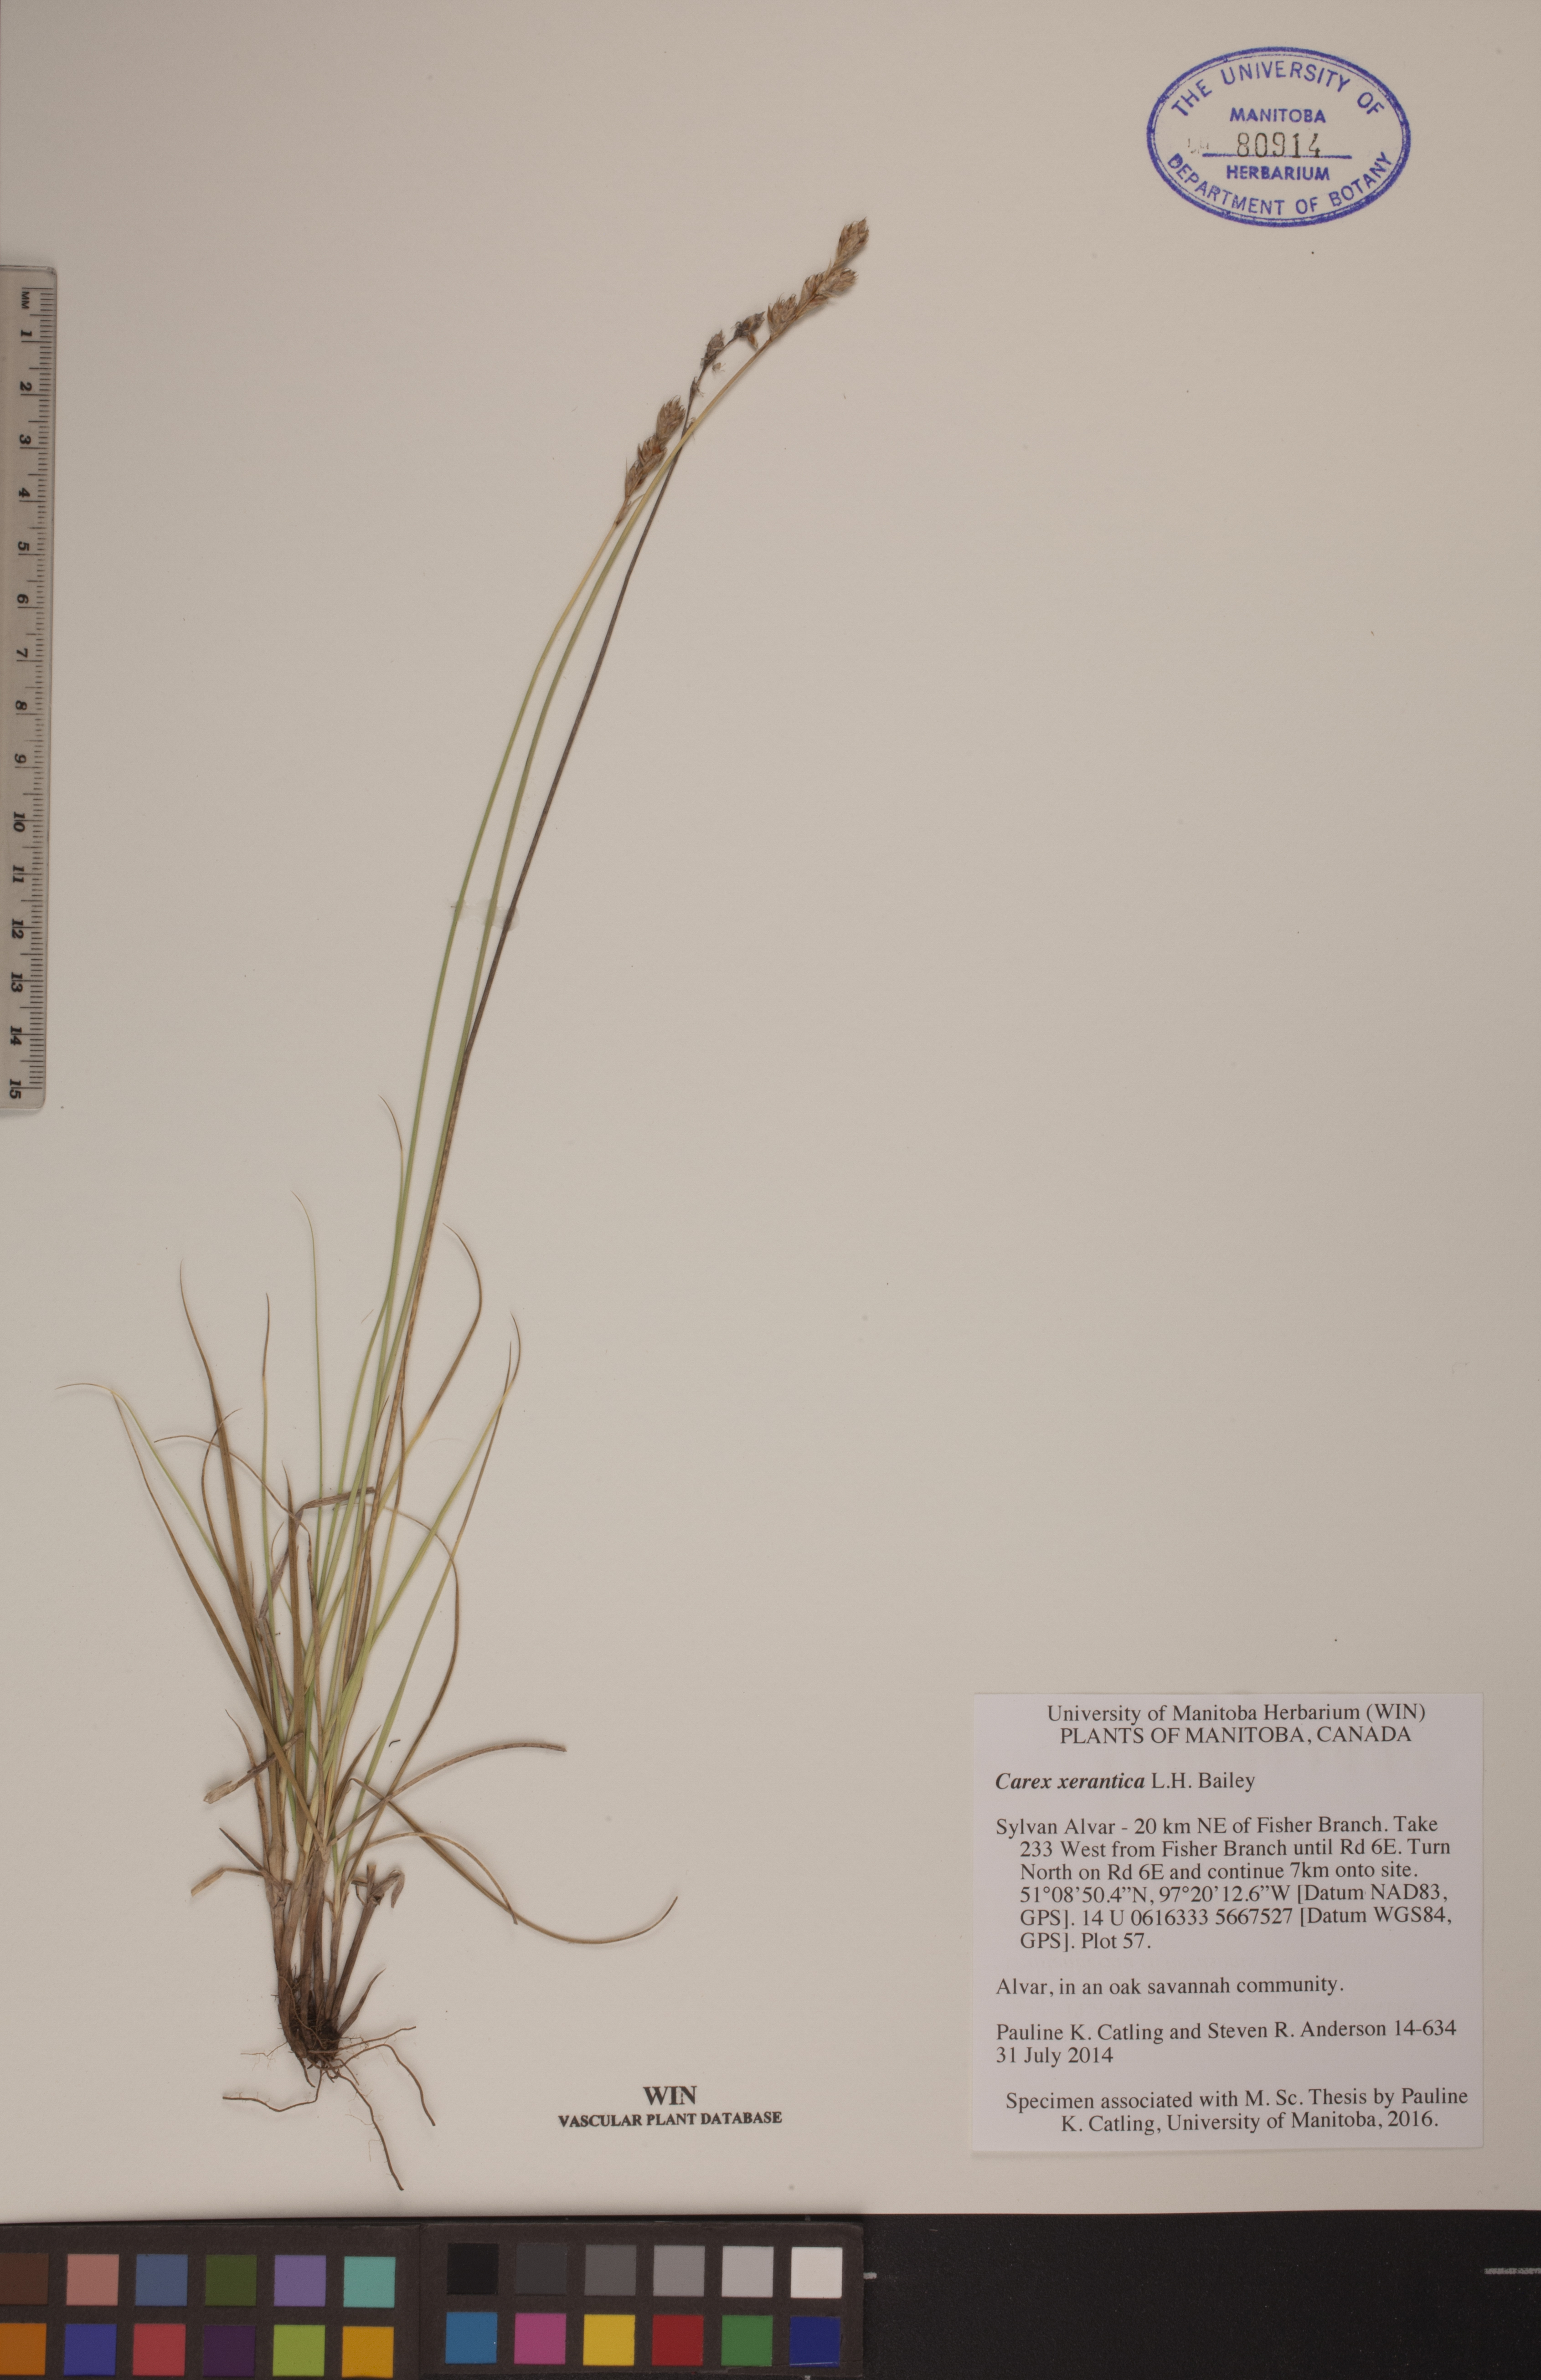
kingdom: Plantae
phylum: Tracheophyta
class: Liliopsida
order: Poales
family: Cyperaceae
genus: Carex
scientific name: Carex xerantica
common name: Dryland sedge
